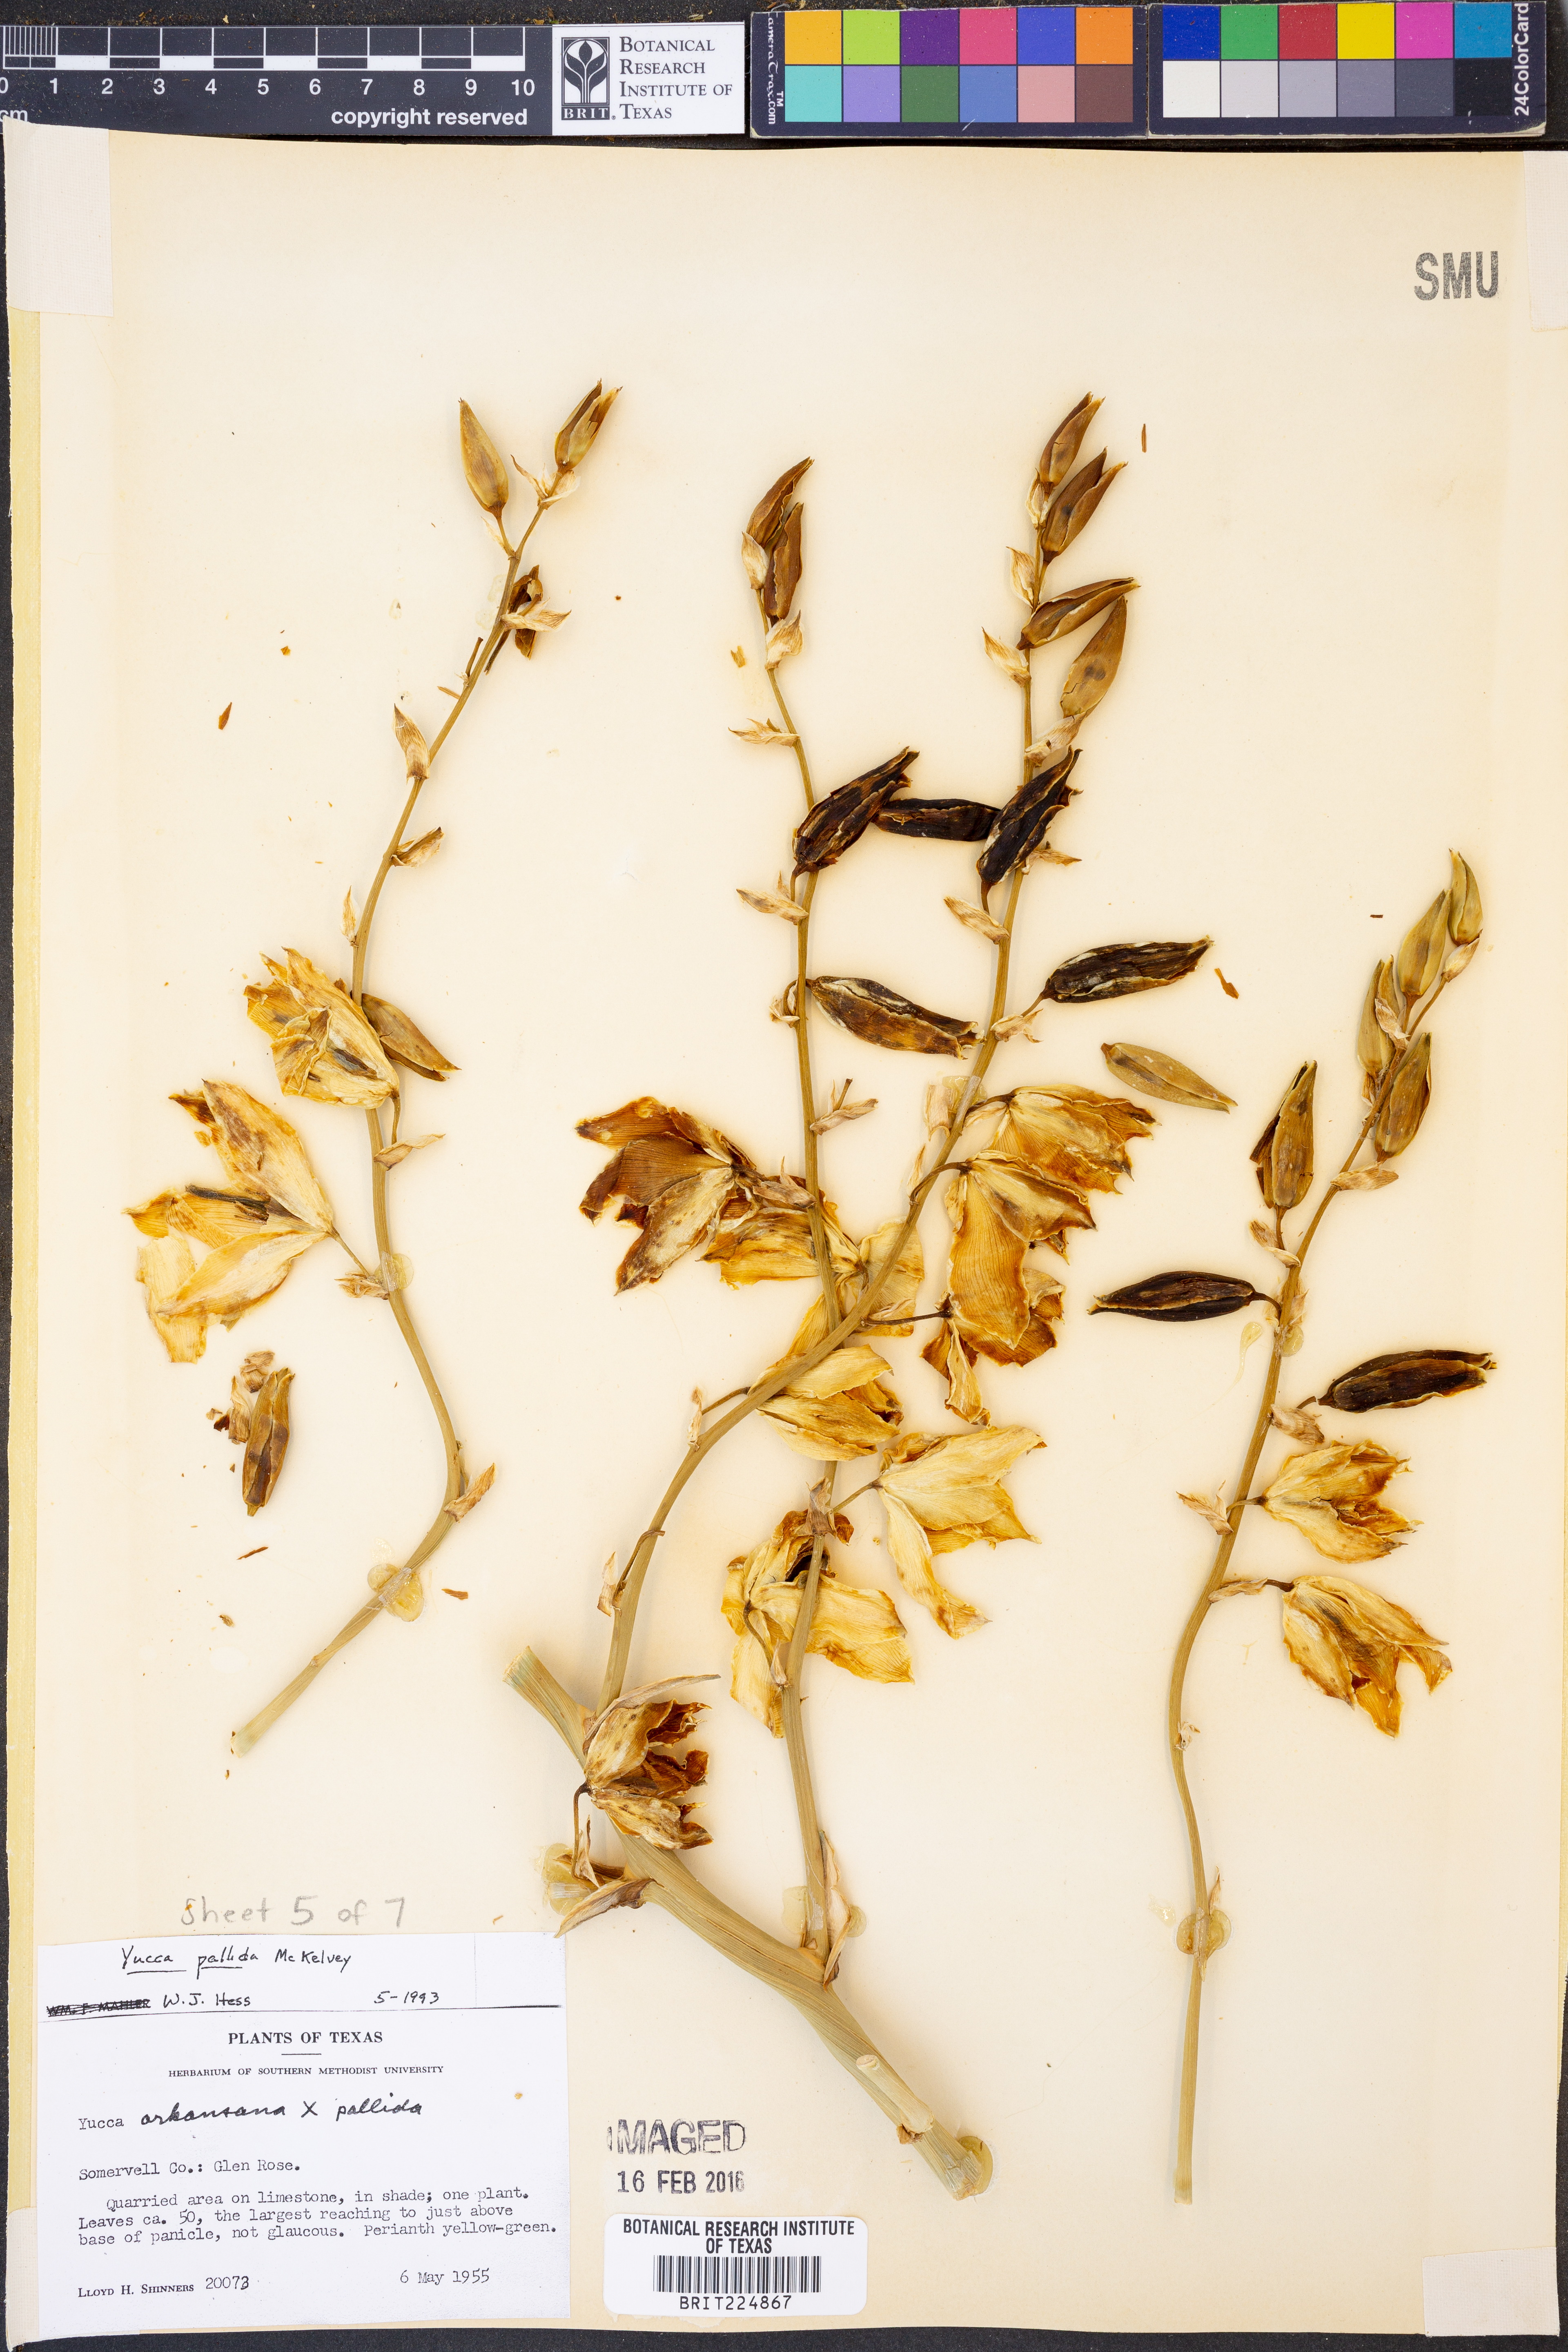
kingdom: Plantae
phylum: Tracheophyta
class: Liliopsida
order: Asparagales
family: Asparagaceae
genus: Yucca
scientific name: Yucca pallida
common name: Pale leaf yucca
